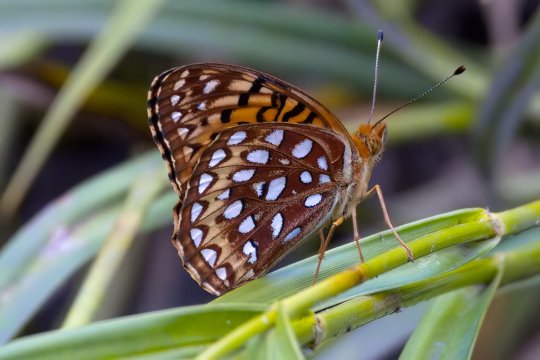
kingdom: Animalia
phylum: Arthropoda
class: Insecta
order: Lepidoptera
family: Nymphalidae
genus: Speyeria
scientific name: Speyeria aphrodite
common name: Aphrodite Fritillary
